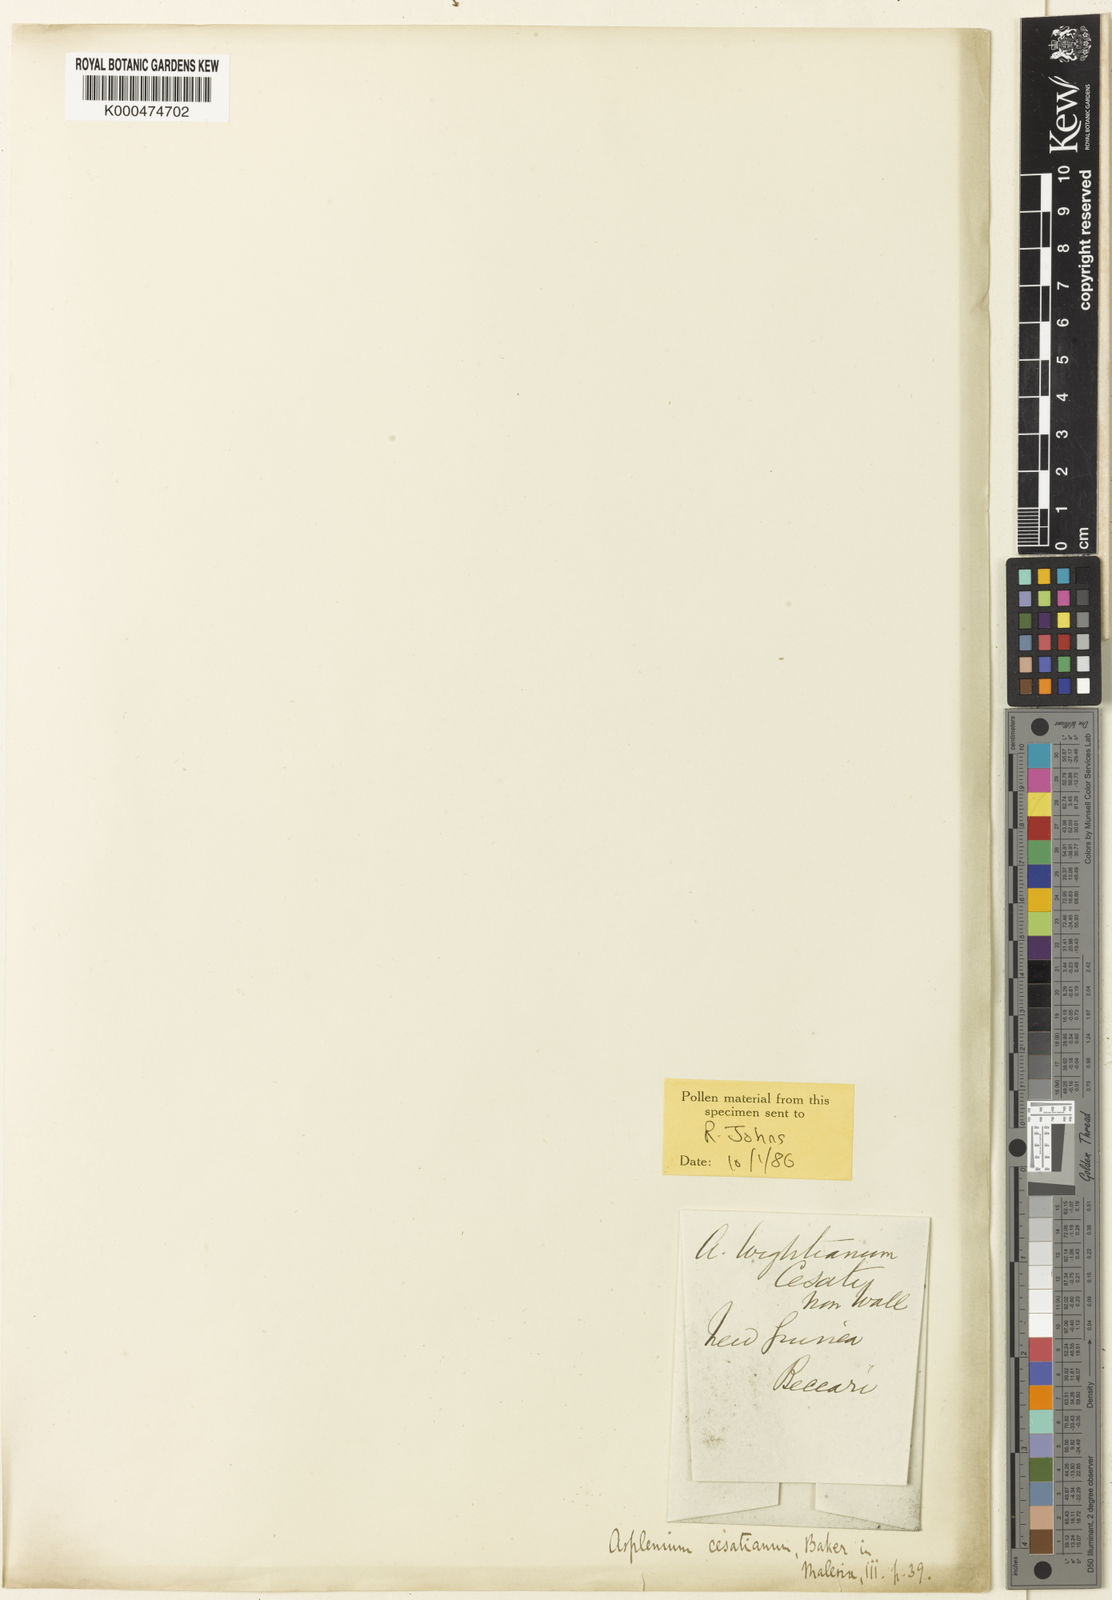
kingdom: Plantae
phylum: Tracheophyta
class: Polypodiopsida
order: Polypodiales
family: Aspleniaceae
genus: Asplenium
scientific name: Asplenium regis
